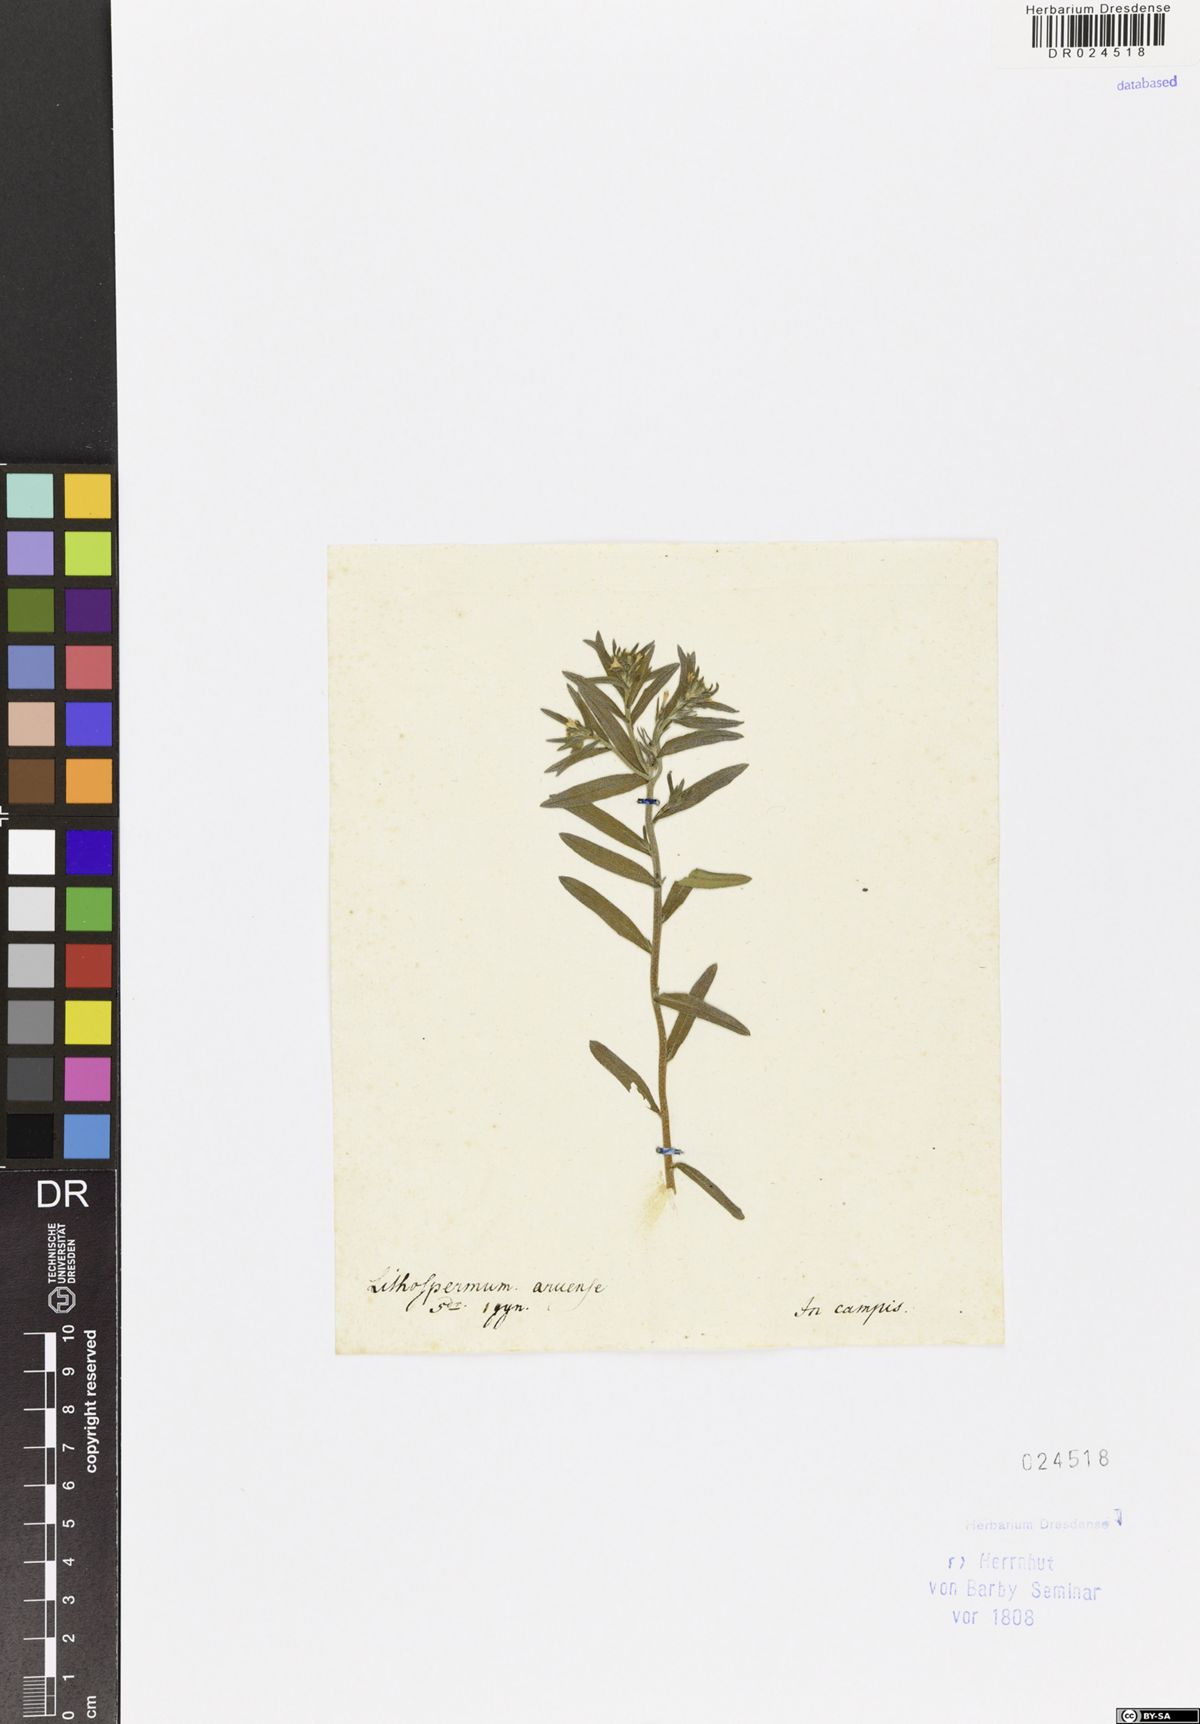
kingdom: Plantae
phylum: Tracheophyta
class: Magnoliopsida
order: Boraginales
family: Boraginaceae
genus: Buglossoides
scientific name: Buglossoides arvensis
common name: Corn gromwell
